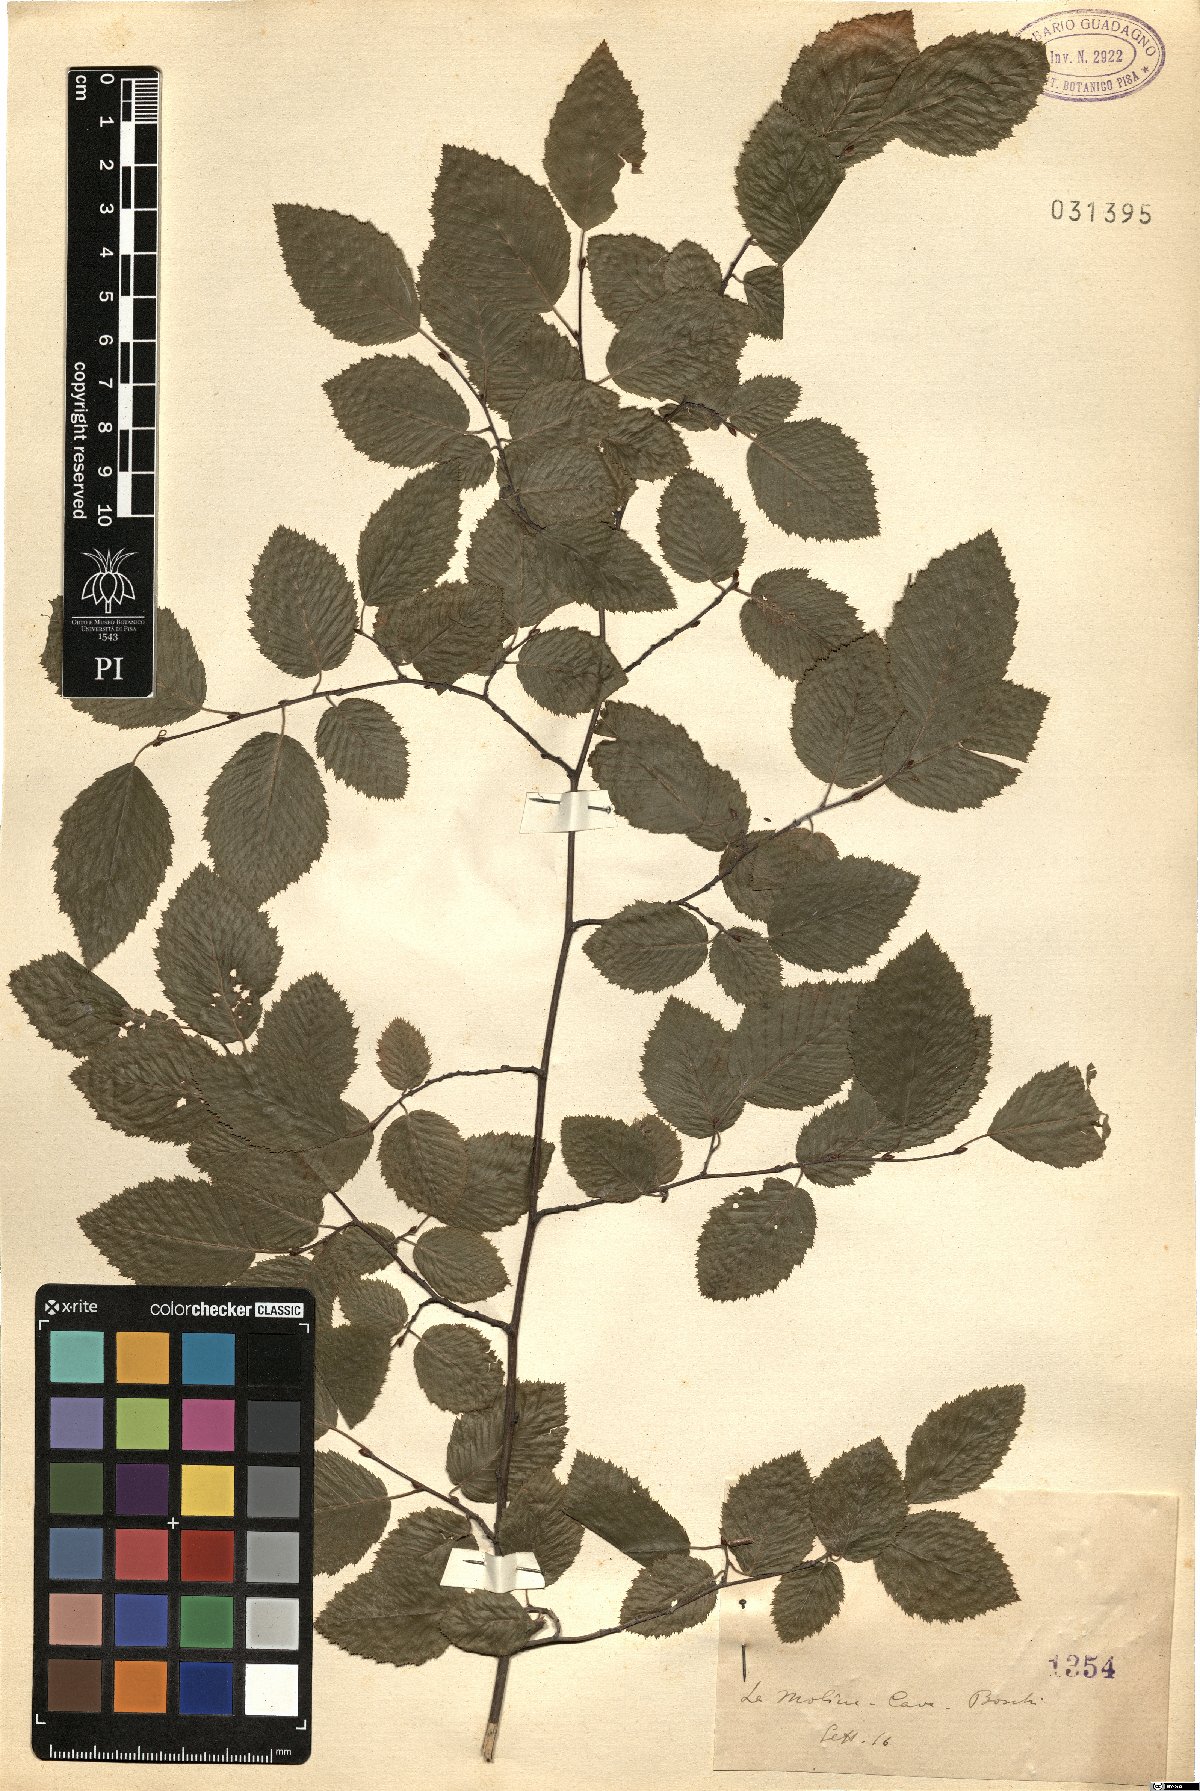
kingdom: Plantae
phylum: Tracheophyta
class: Magnoliopsida
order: Fagales
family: Betulaceae
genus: Ostrya
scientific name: Ostrya
